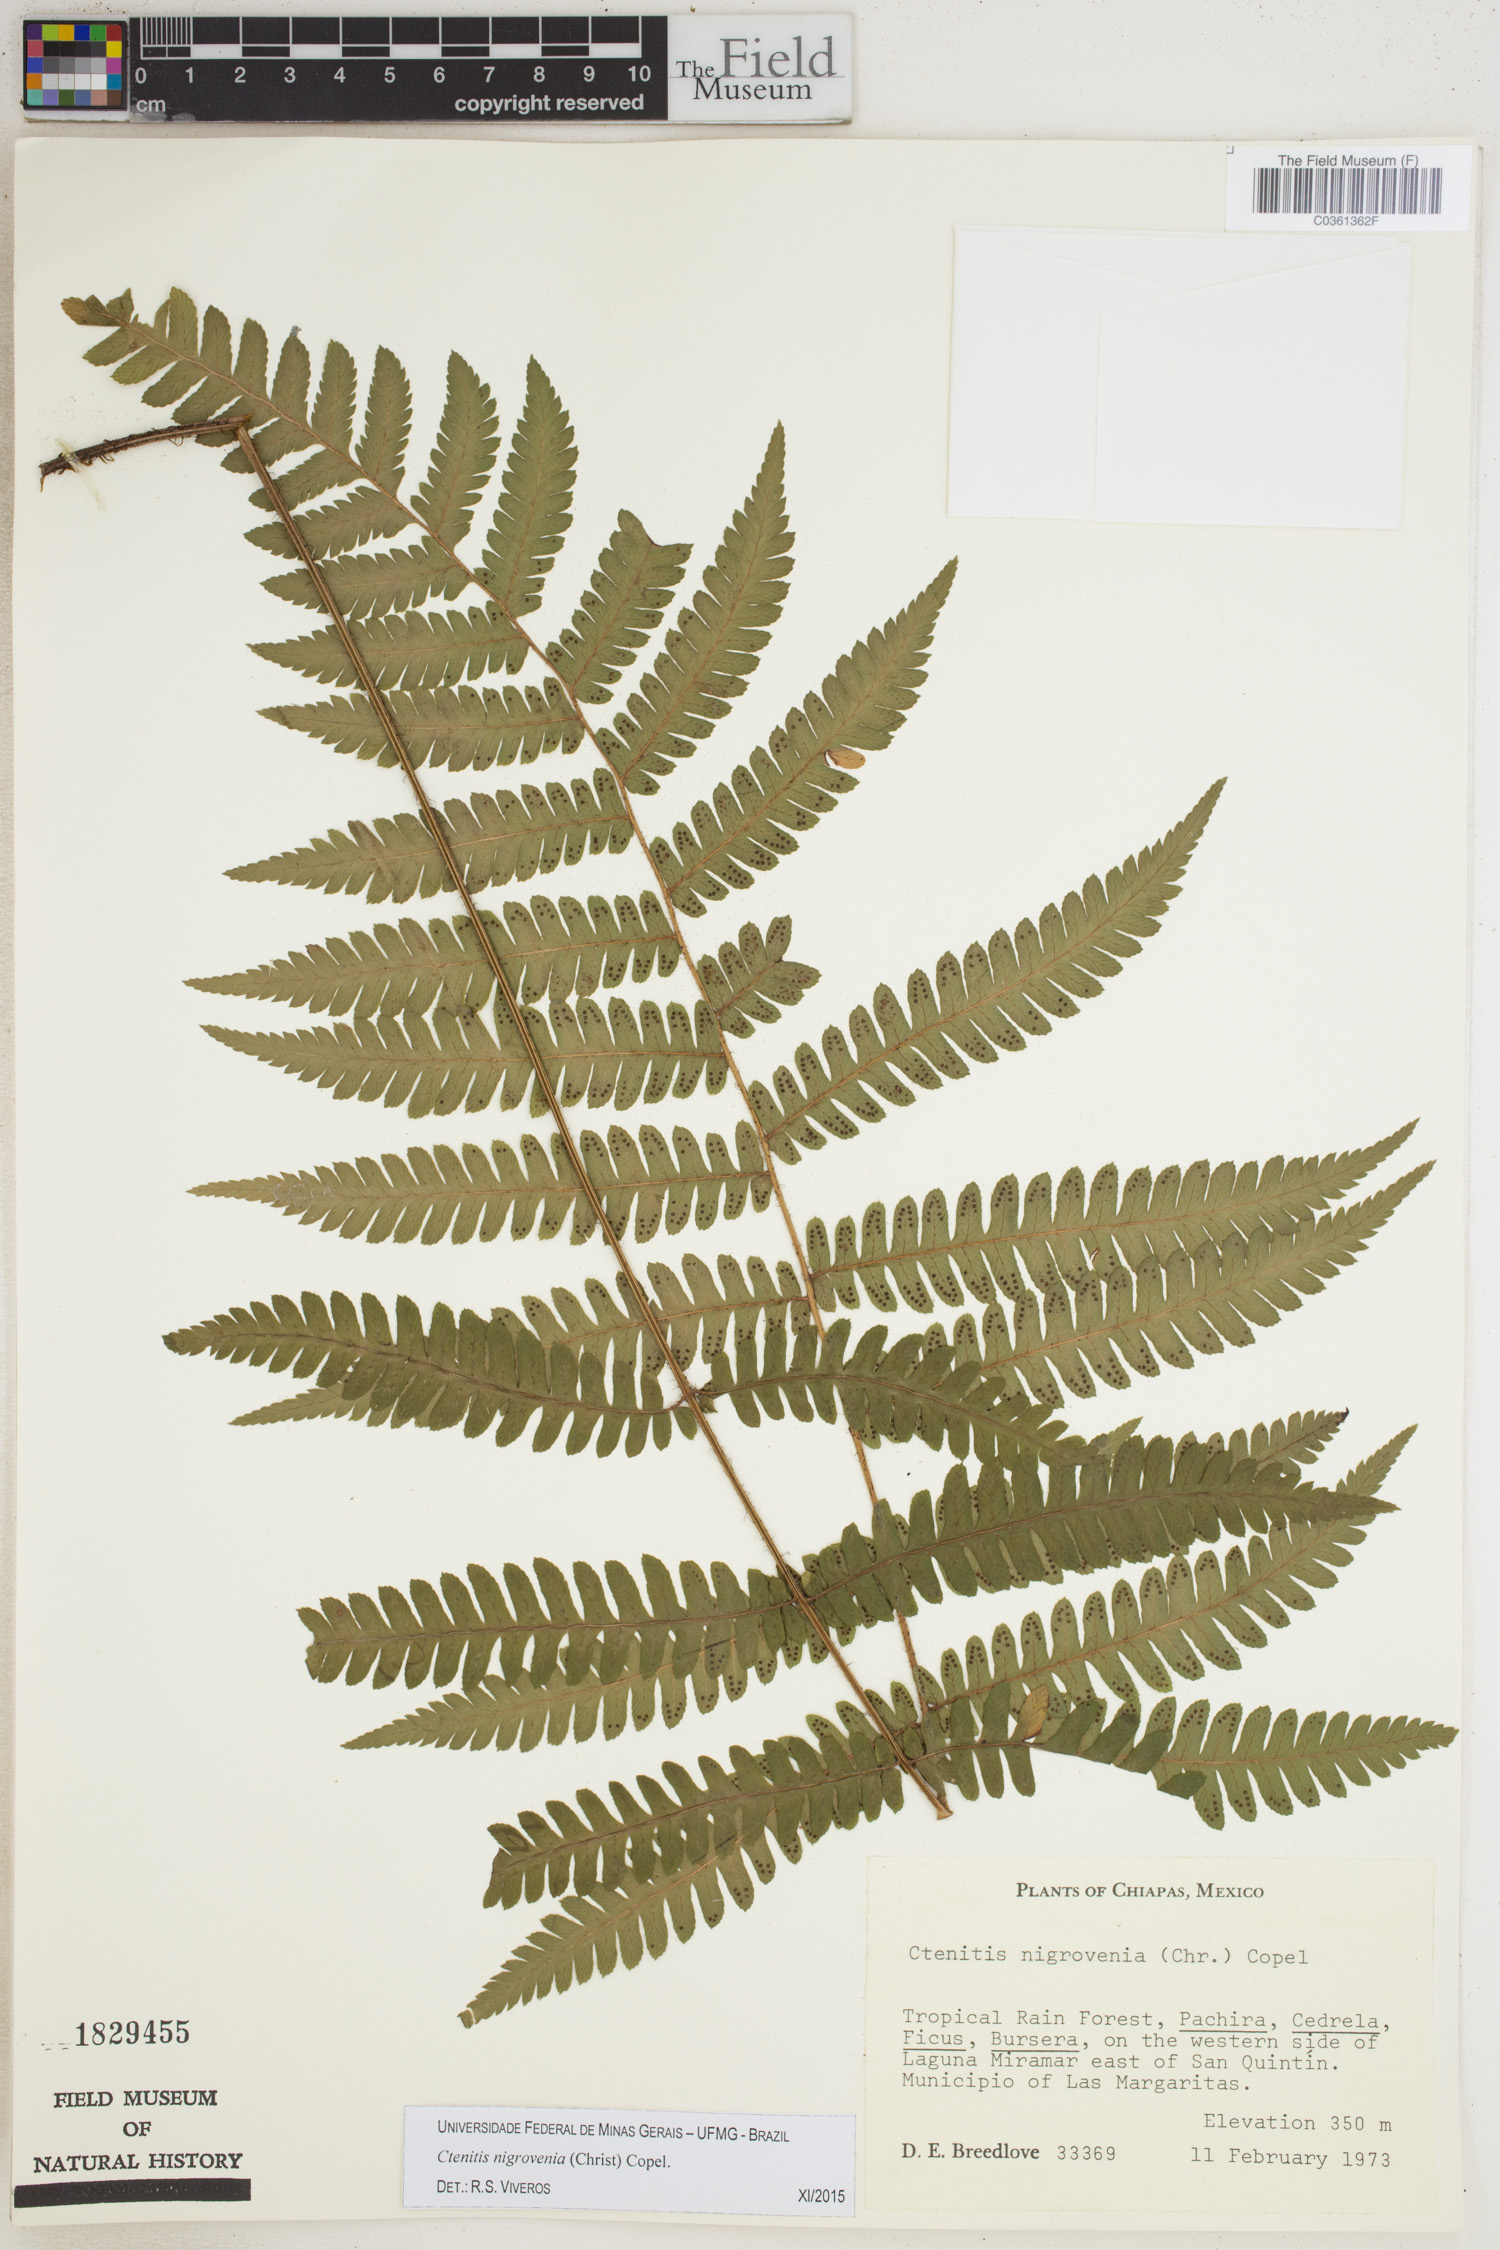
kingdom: Plantae
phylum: Tracheophyta
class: Polypodiopsida
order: Polypodiales
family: Dryopteridaceae
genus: Ctenitis
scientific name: Ctenitis nigrovenia
